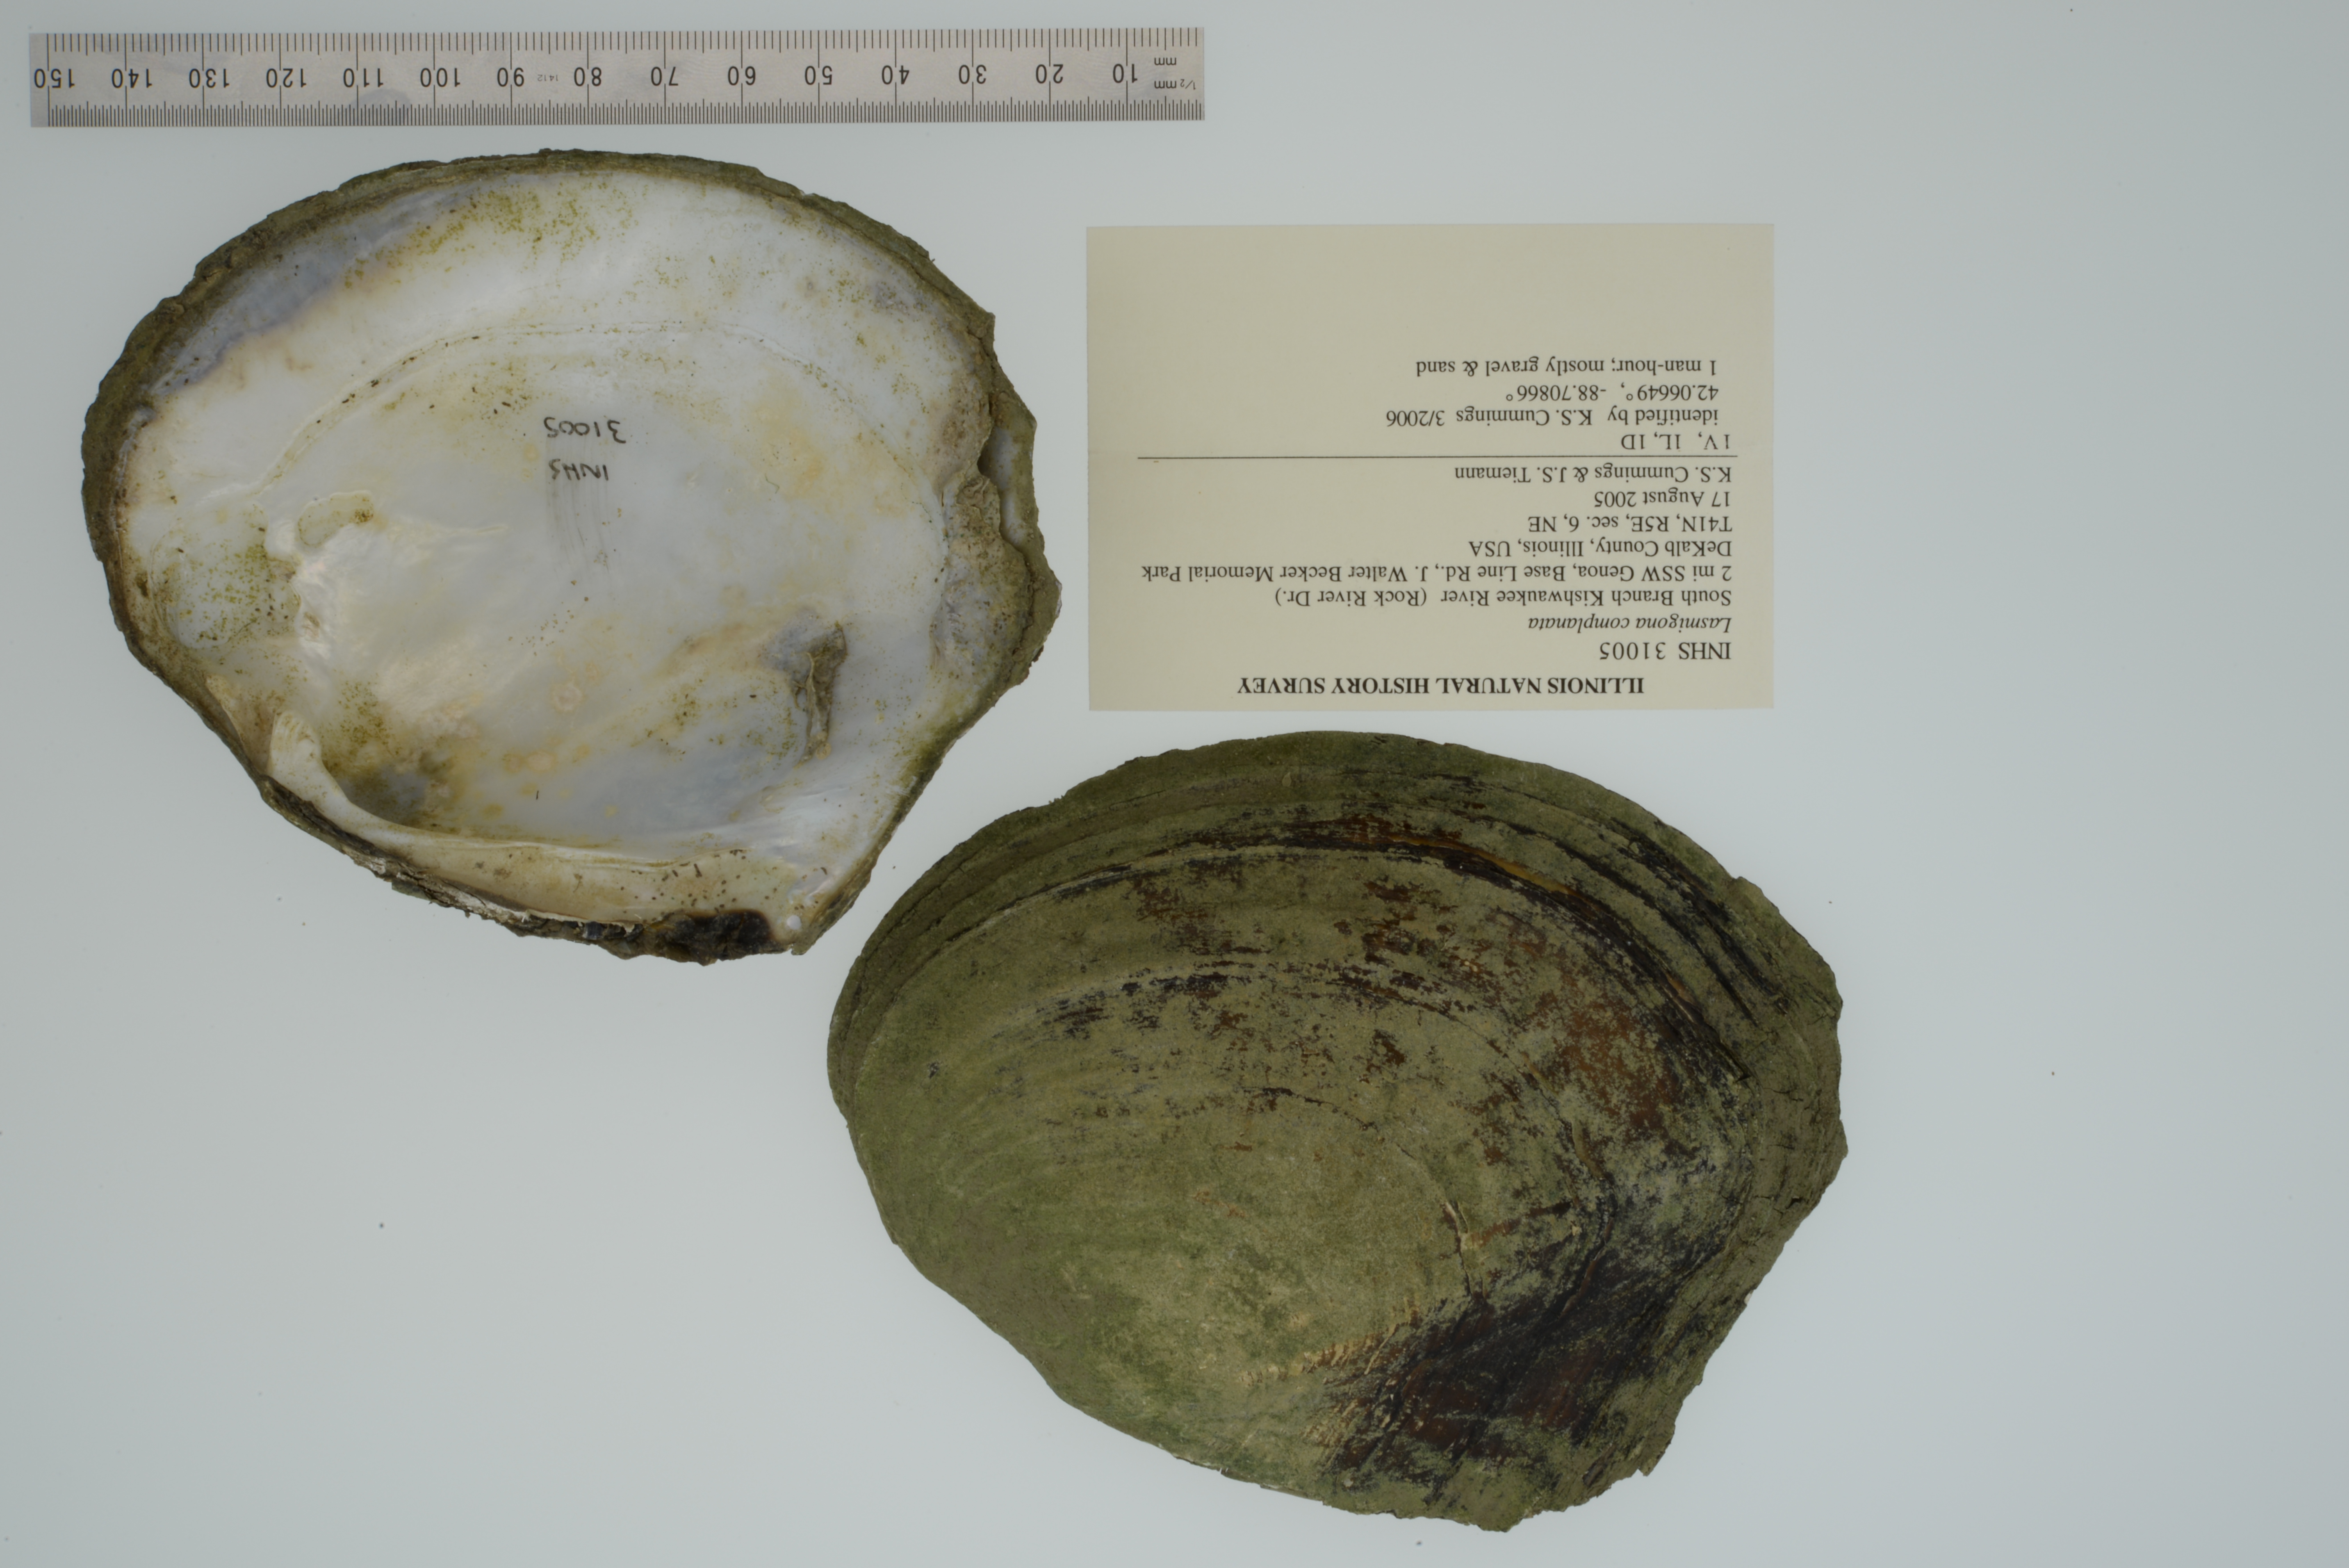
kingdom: Animalia
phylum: Mollusca
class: Bivalvia
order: Unionida
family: Unionidae
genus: Lasmigona
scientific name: Lasmigona complanata
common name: White heelsplitter
